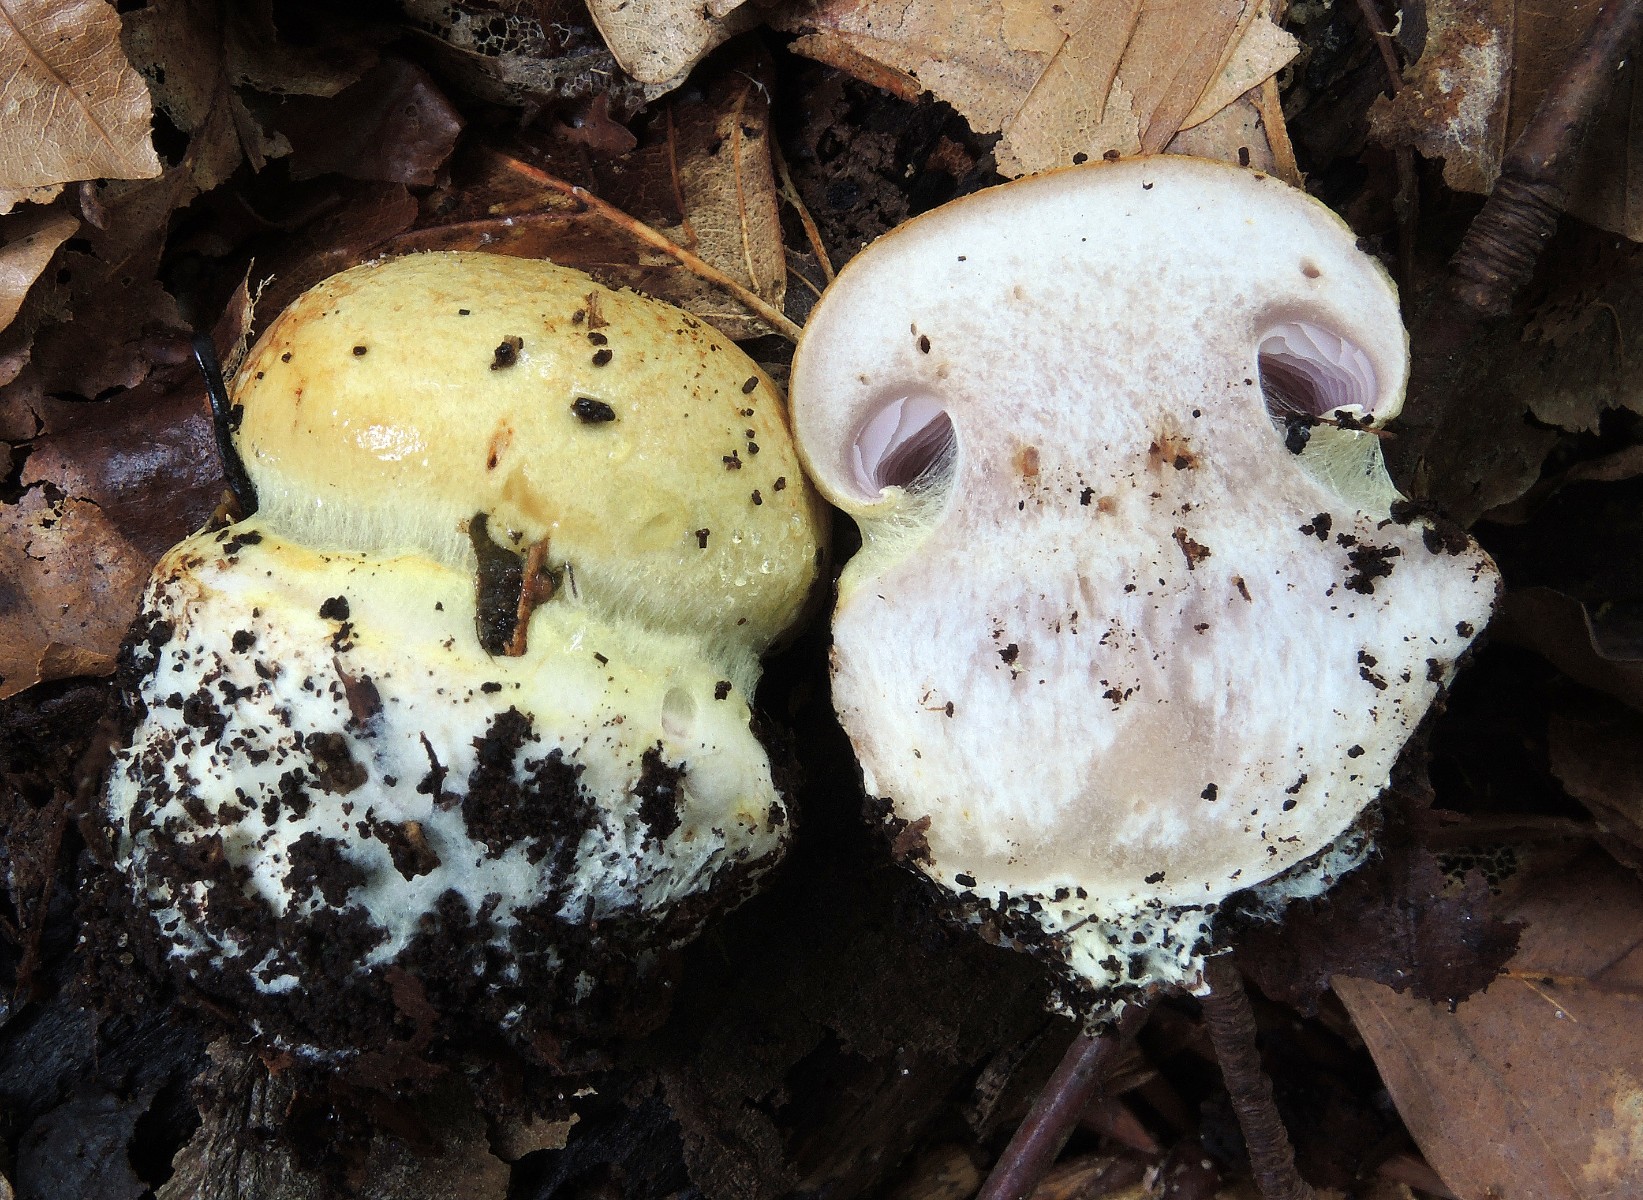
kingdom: Fungi
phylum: Basidiomycota
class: Agaricomycetes
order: Agaricales
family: Cortinariaceae
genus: Calonarius
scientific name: Calonarius callochrous
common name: lillabladet slørhat
